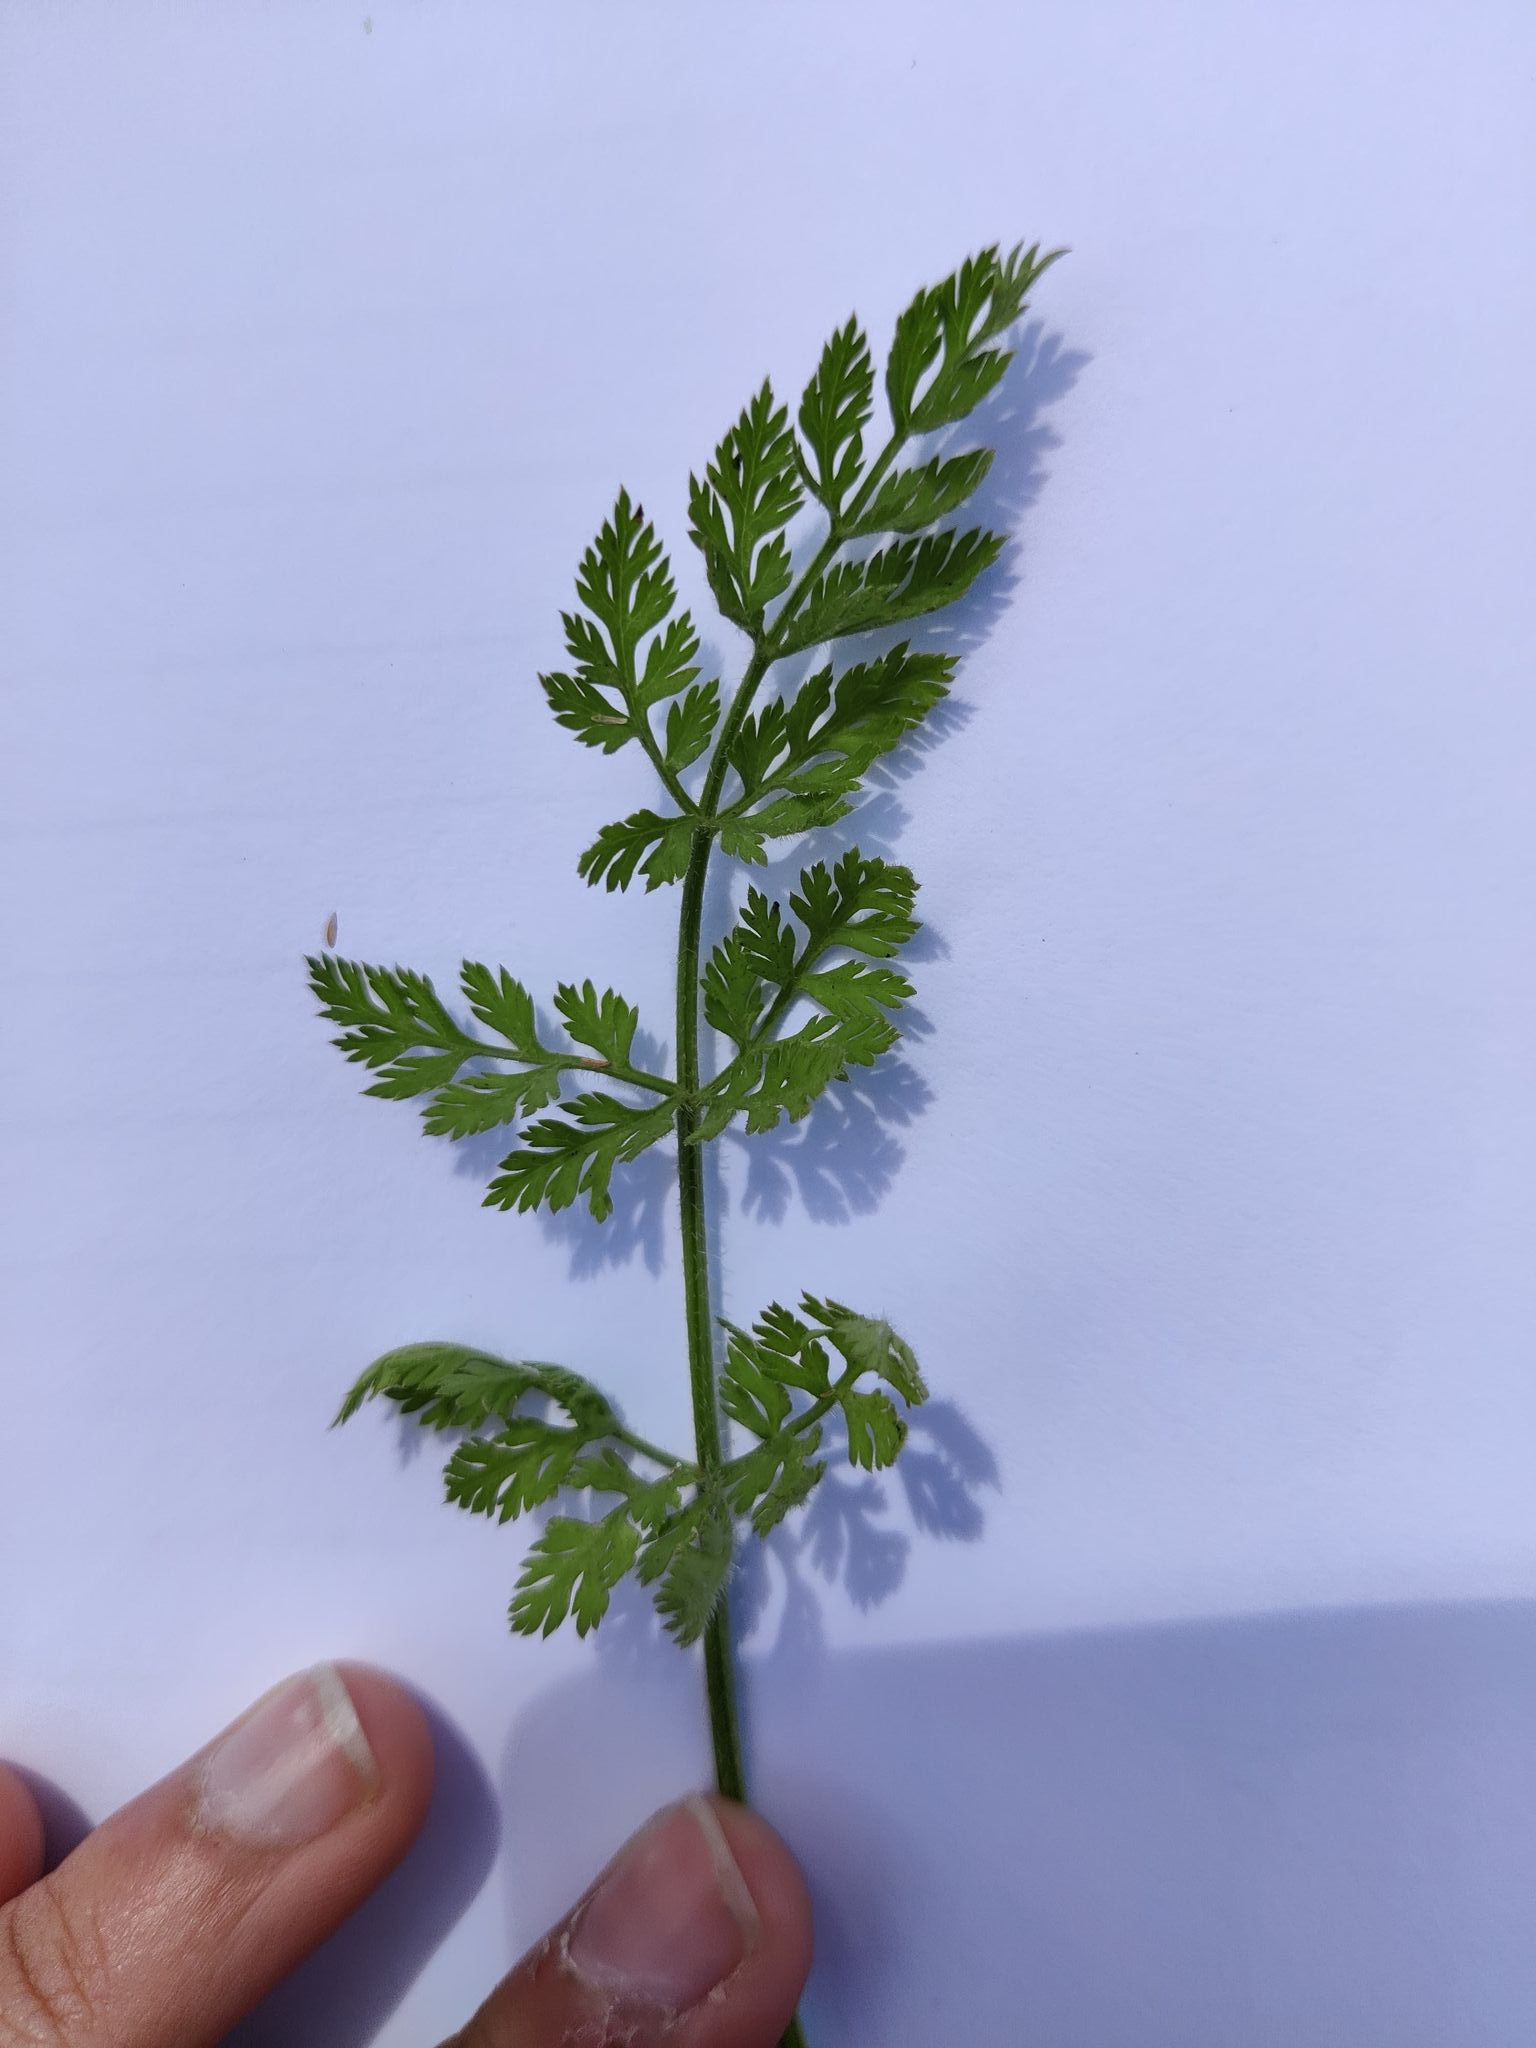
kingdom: Plantae
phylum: Tracheophyta
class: Magnoliopsida
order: Apiales
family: Apiaceae
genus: Daucus
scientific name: Daucus carota
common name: Vild gulerod
